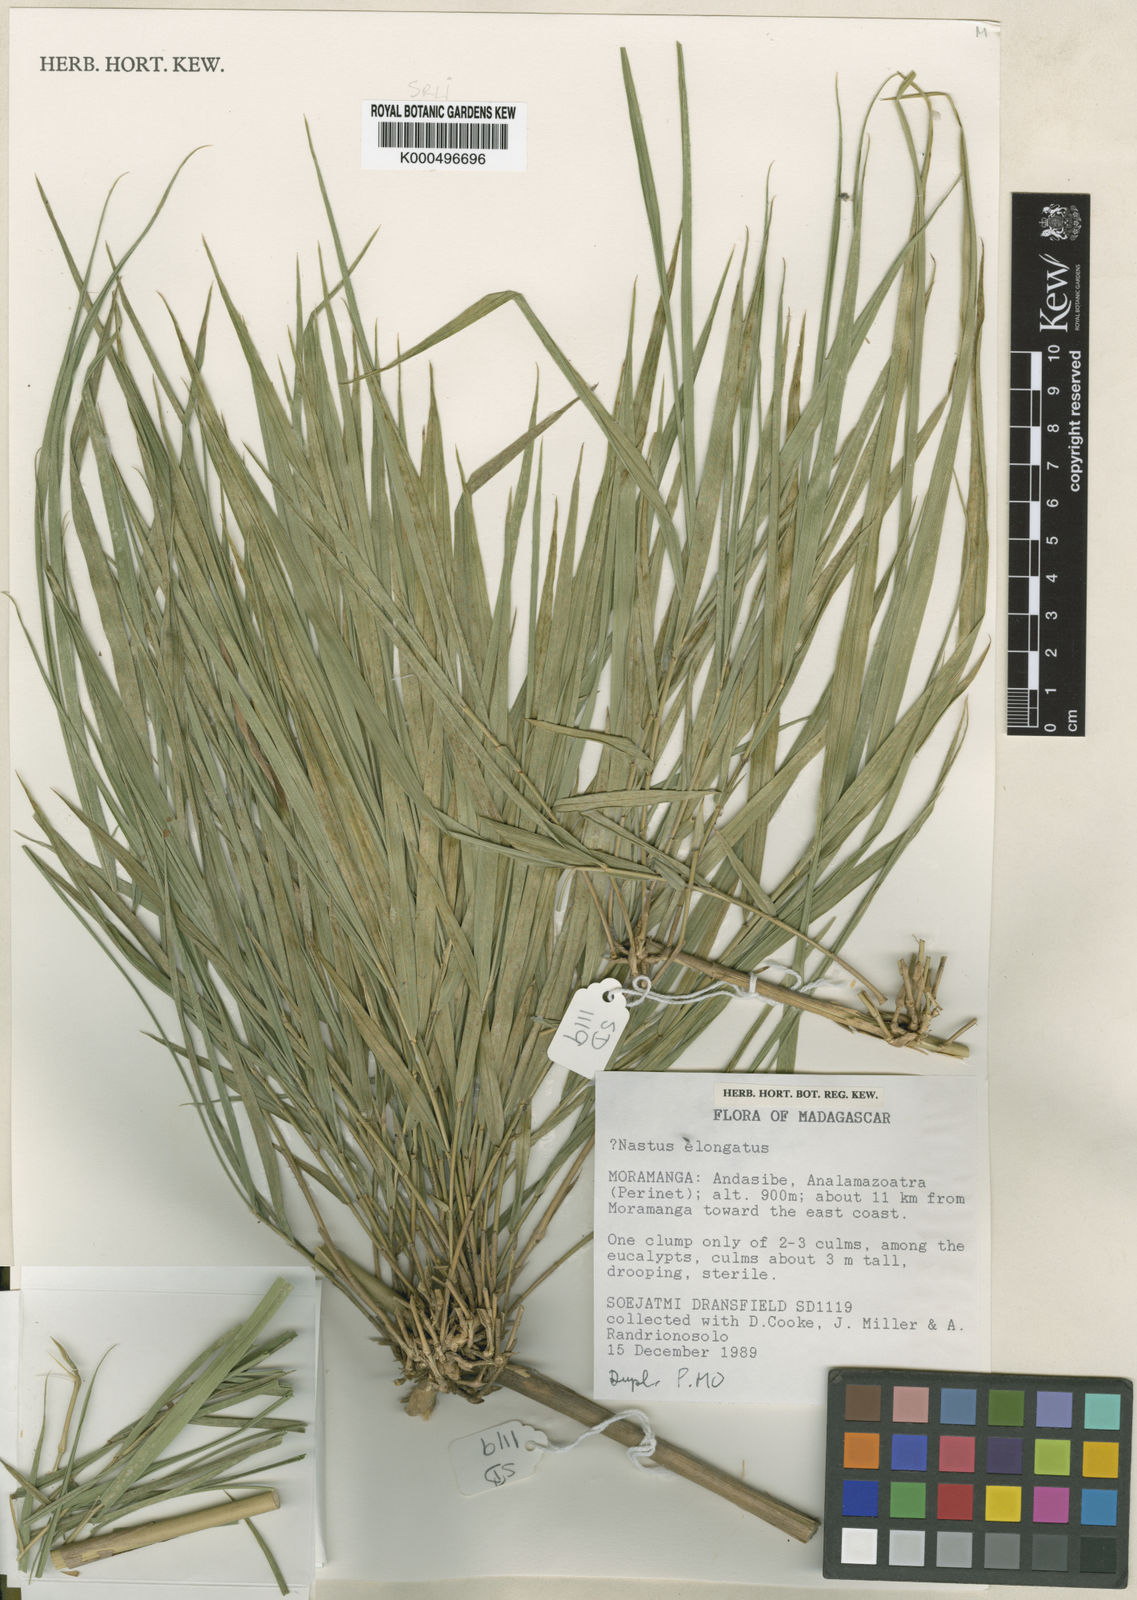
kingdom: Plantae
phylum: Tracheophyta
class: Liliopsida
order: Poales
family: Poaceae
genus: Nastus
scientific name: Nastus elongatus
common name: Spider bamboo
